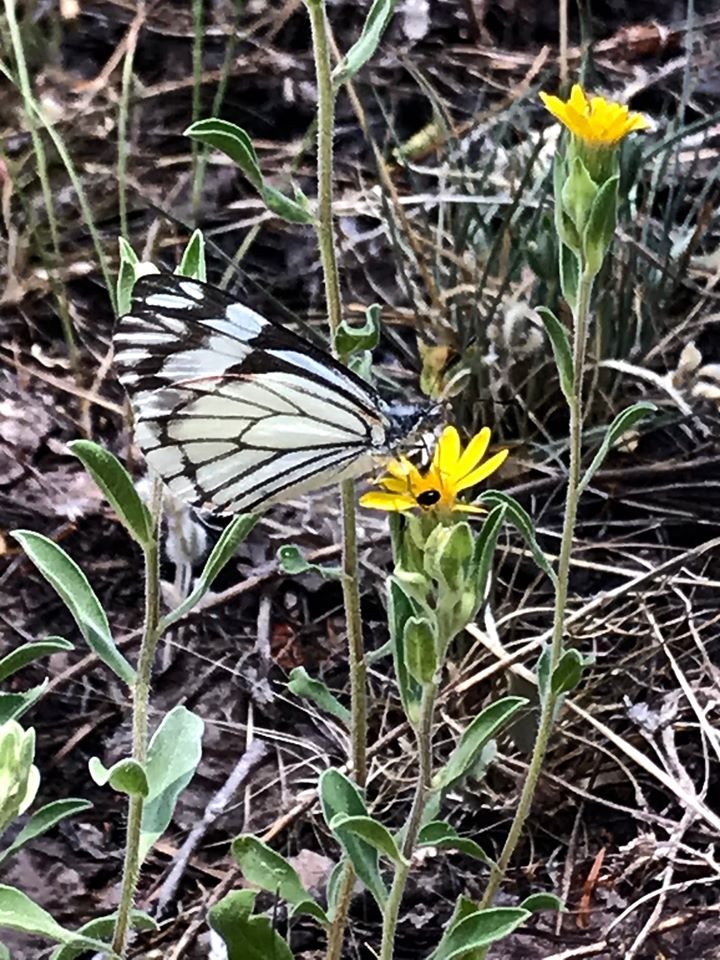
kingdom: Animalia
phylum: Arthropoda
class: Insecta
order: Lepidoptera
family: Pieridae
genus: Neophasia
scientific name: Neophasia menapia
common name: Pine White
